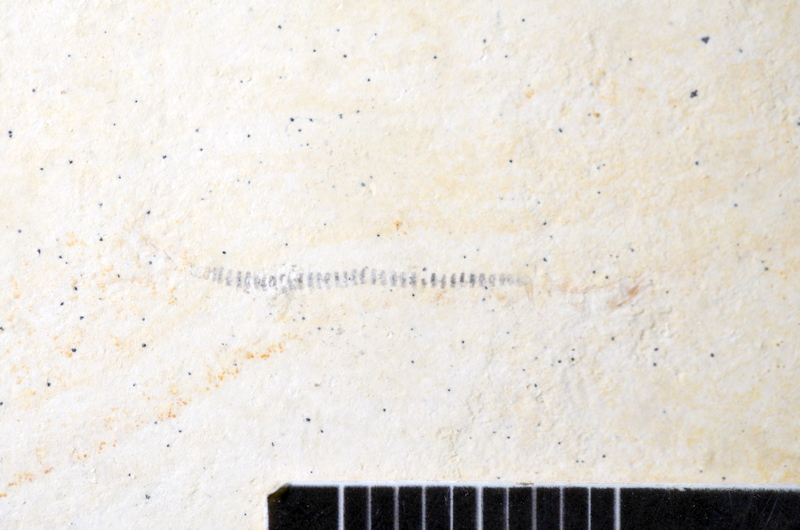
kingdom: Animalia
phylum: Chordata
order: Salmoniformes
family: Orthogonikleithridae
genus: Orthogonikleithrus
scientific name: Orthogonikleithrus hoelli
